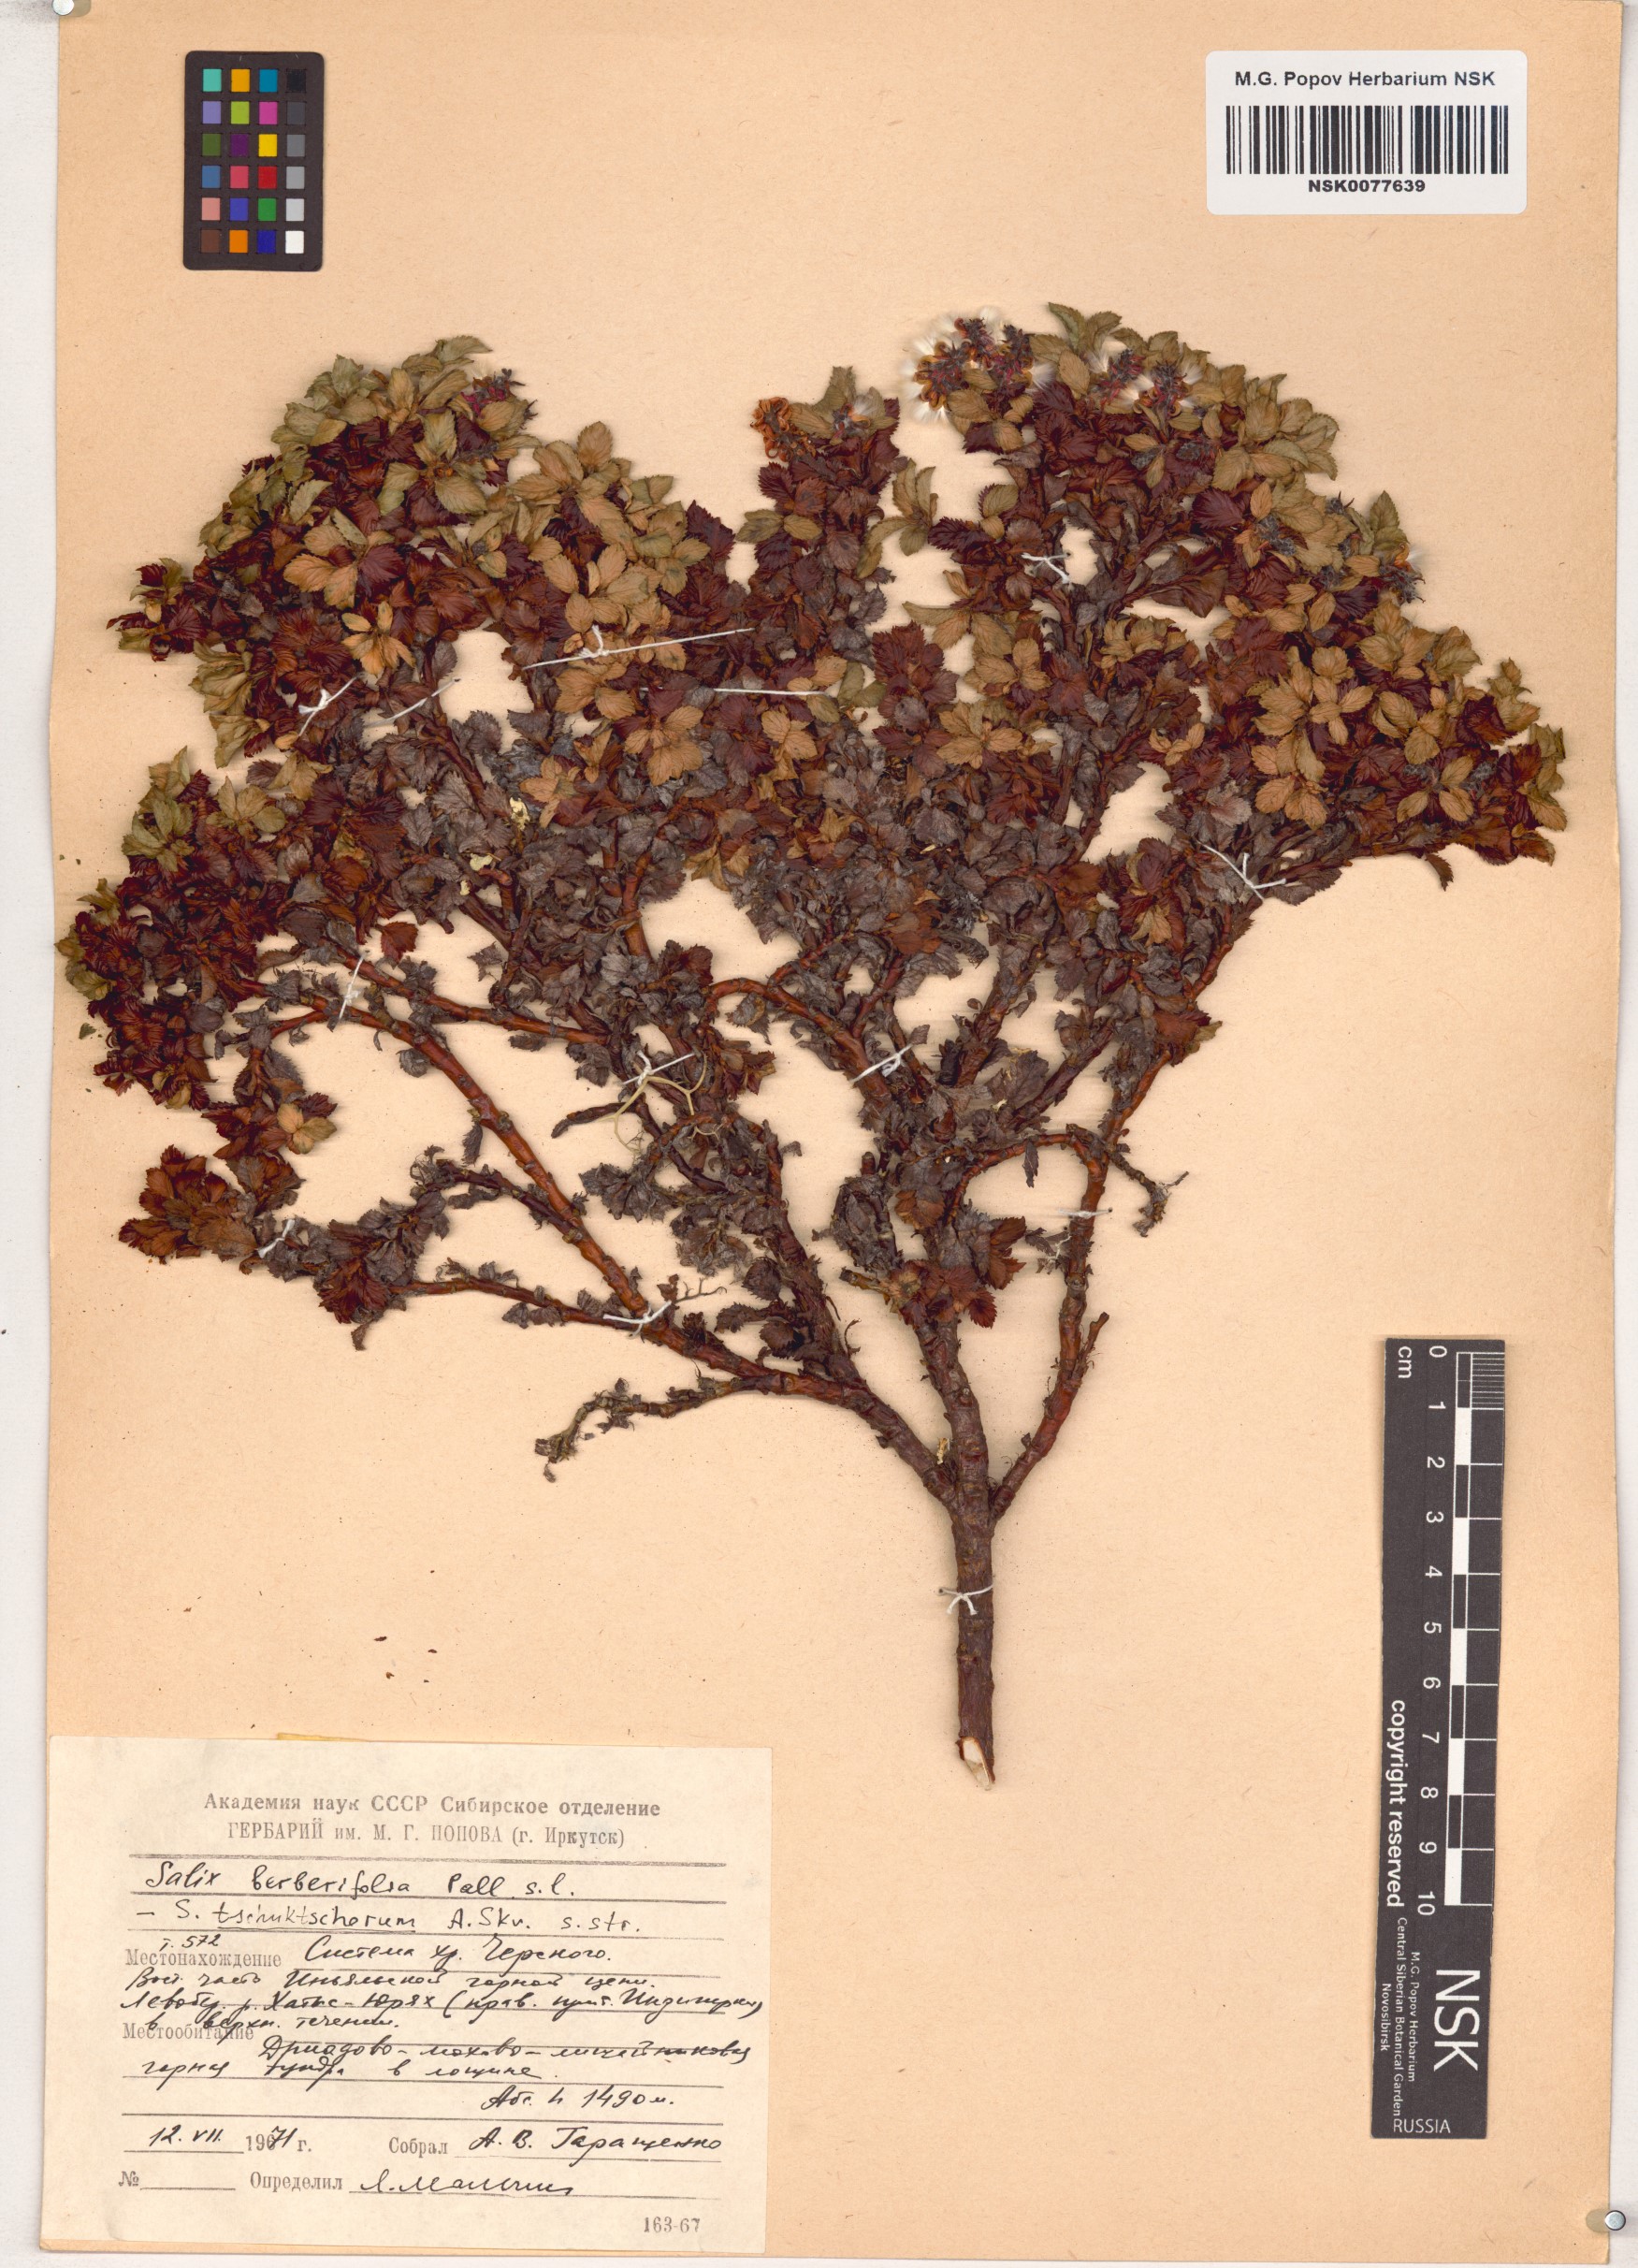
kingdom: Plantae
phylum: Tracheophyta
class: Magnoliopsida
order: Malpighiales
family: Salicaceae
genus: Salix
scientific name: Salix tschuktschorum
